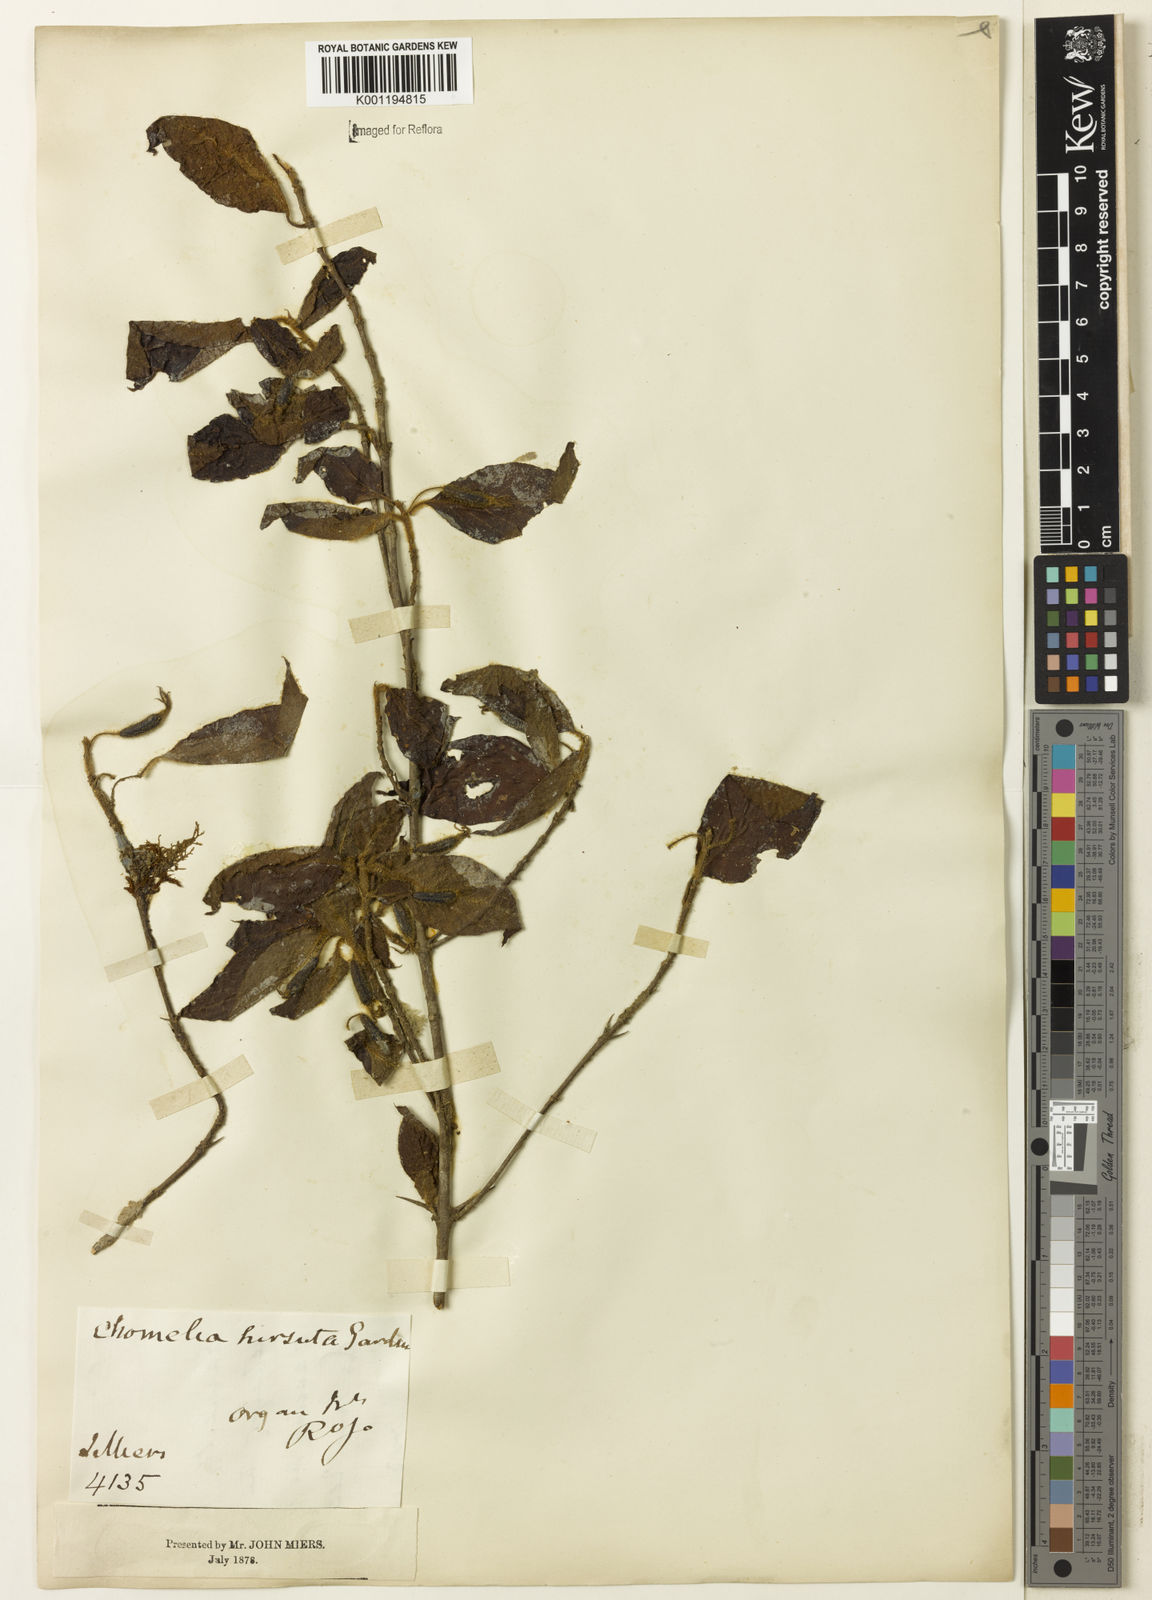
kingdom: Plantae
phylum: Tracheophyta
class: Magnoliopsida
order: Gentianales
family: Rubiaceae
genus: Chomelia
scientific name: Chomelia hirsuta
